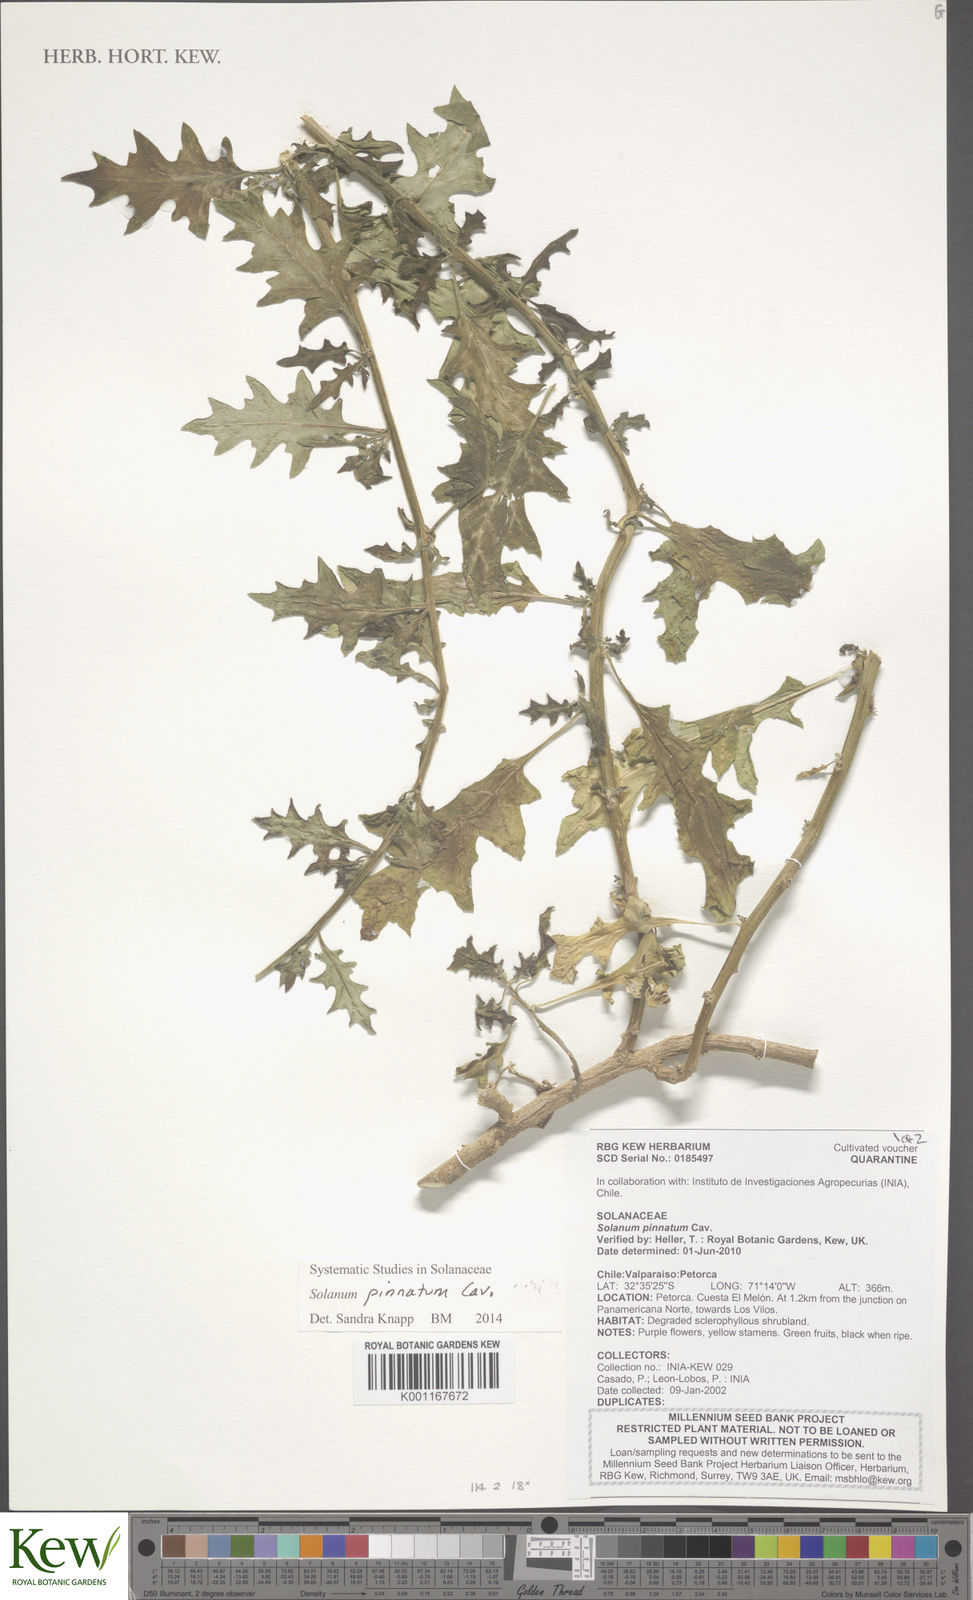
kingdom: Plantae
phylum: Tracheophyta
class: Magnoliopsida
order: Solanales
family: Solanaceae
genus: Solanum
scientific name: Solanum pinnatum
